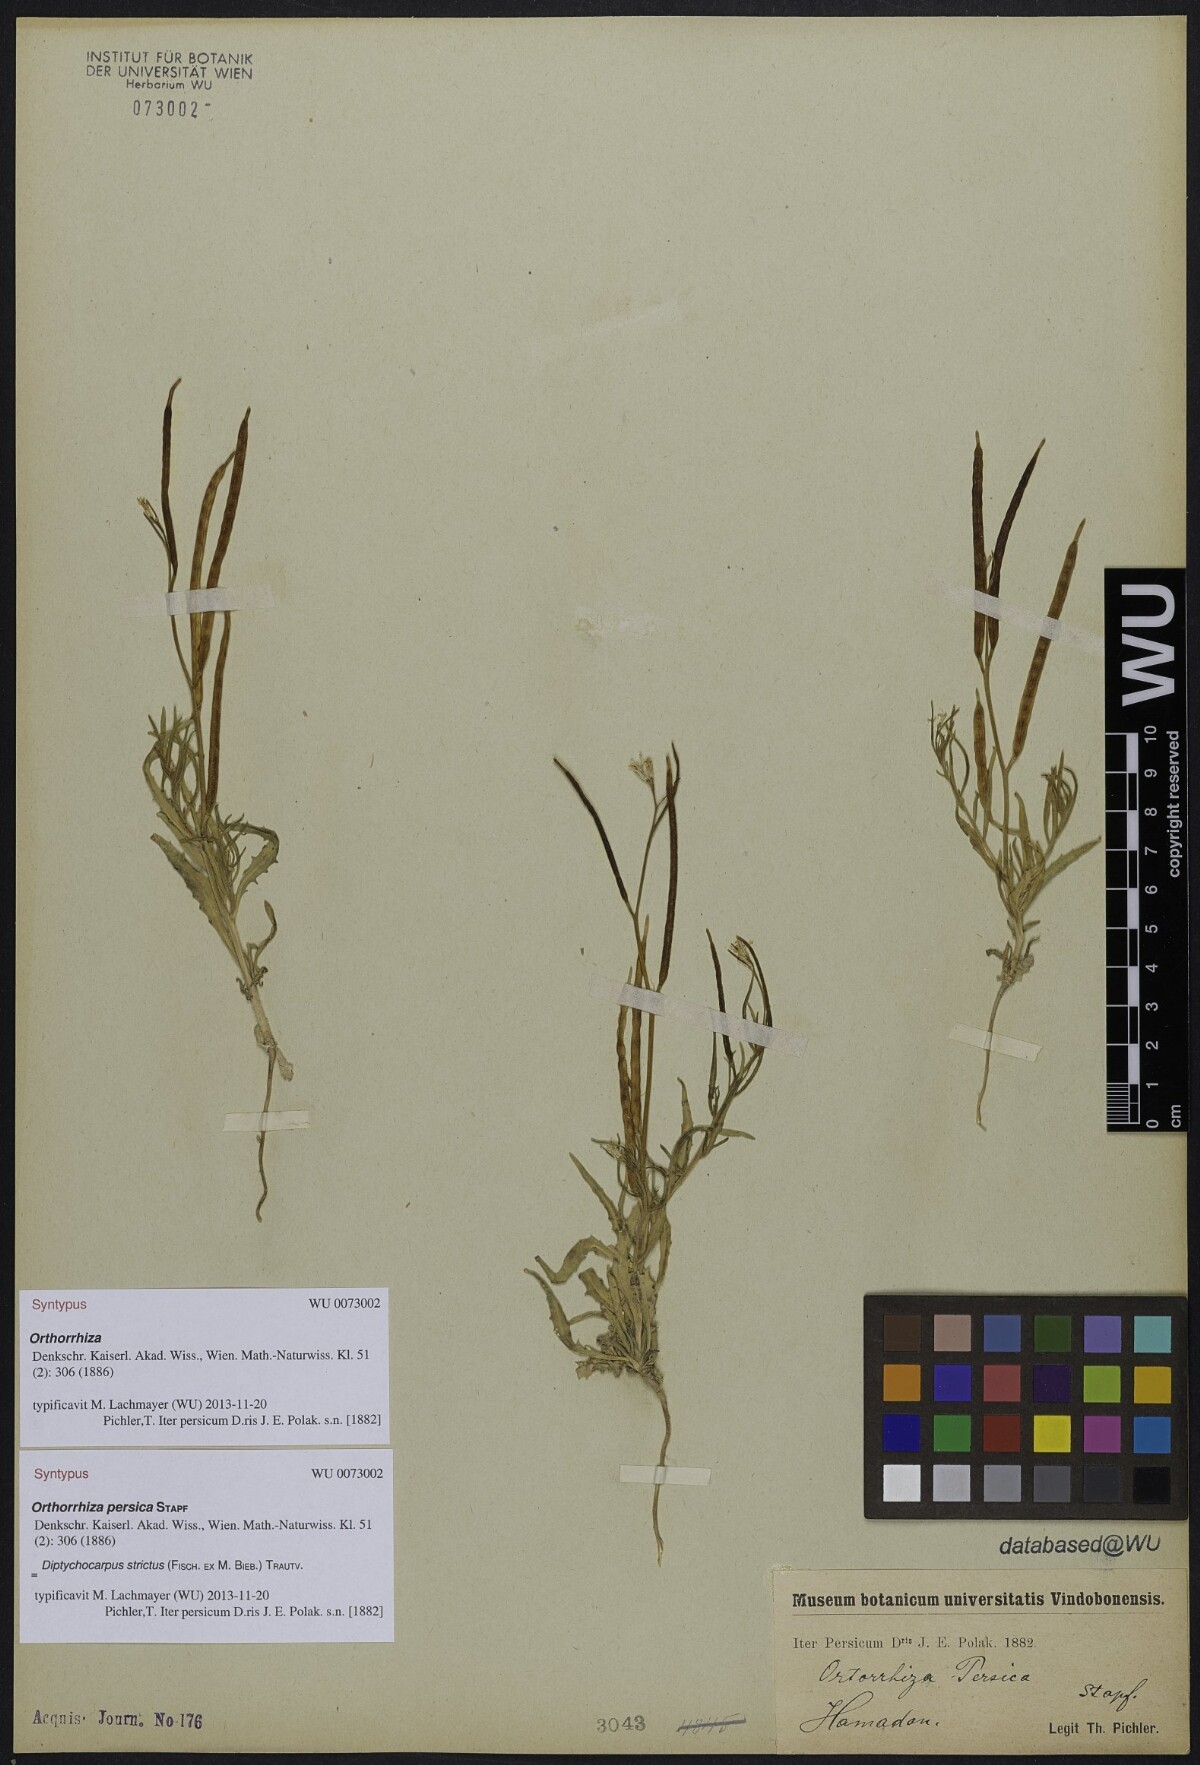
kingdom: Plantae
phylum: Tracheophyta
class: Magnoliopsida
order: Brassicales
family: Brassicaceae
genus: Diptychocarpus
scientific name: Diptychocarpus strictus
